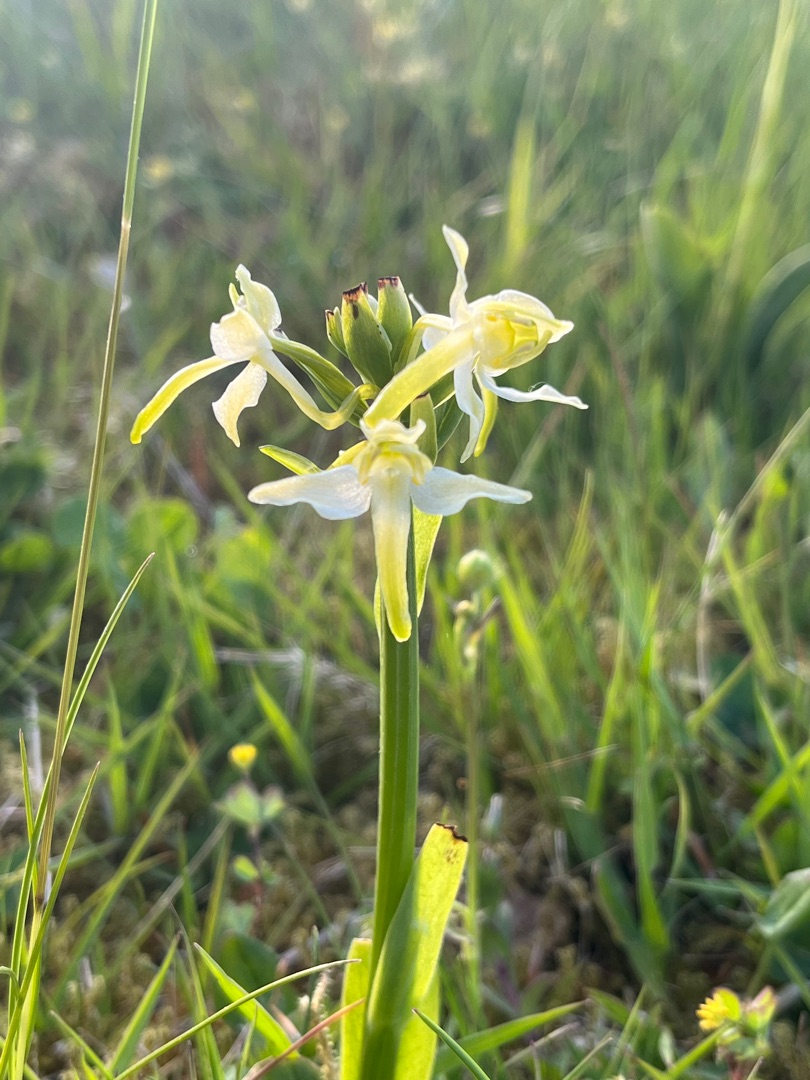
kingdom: Plantae
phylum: Tracheophyta
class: Liliopsida
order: Asparagales
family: Orchidaceae
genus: Platanthera
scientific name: Platanthera chlorantha
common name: Skov-gøgelilje
